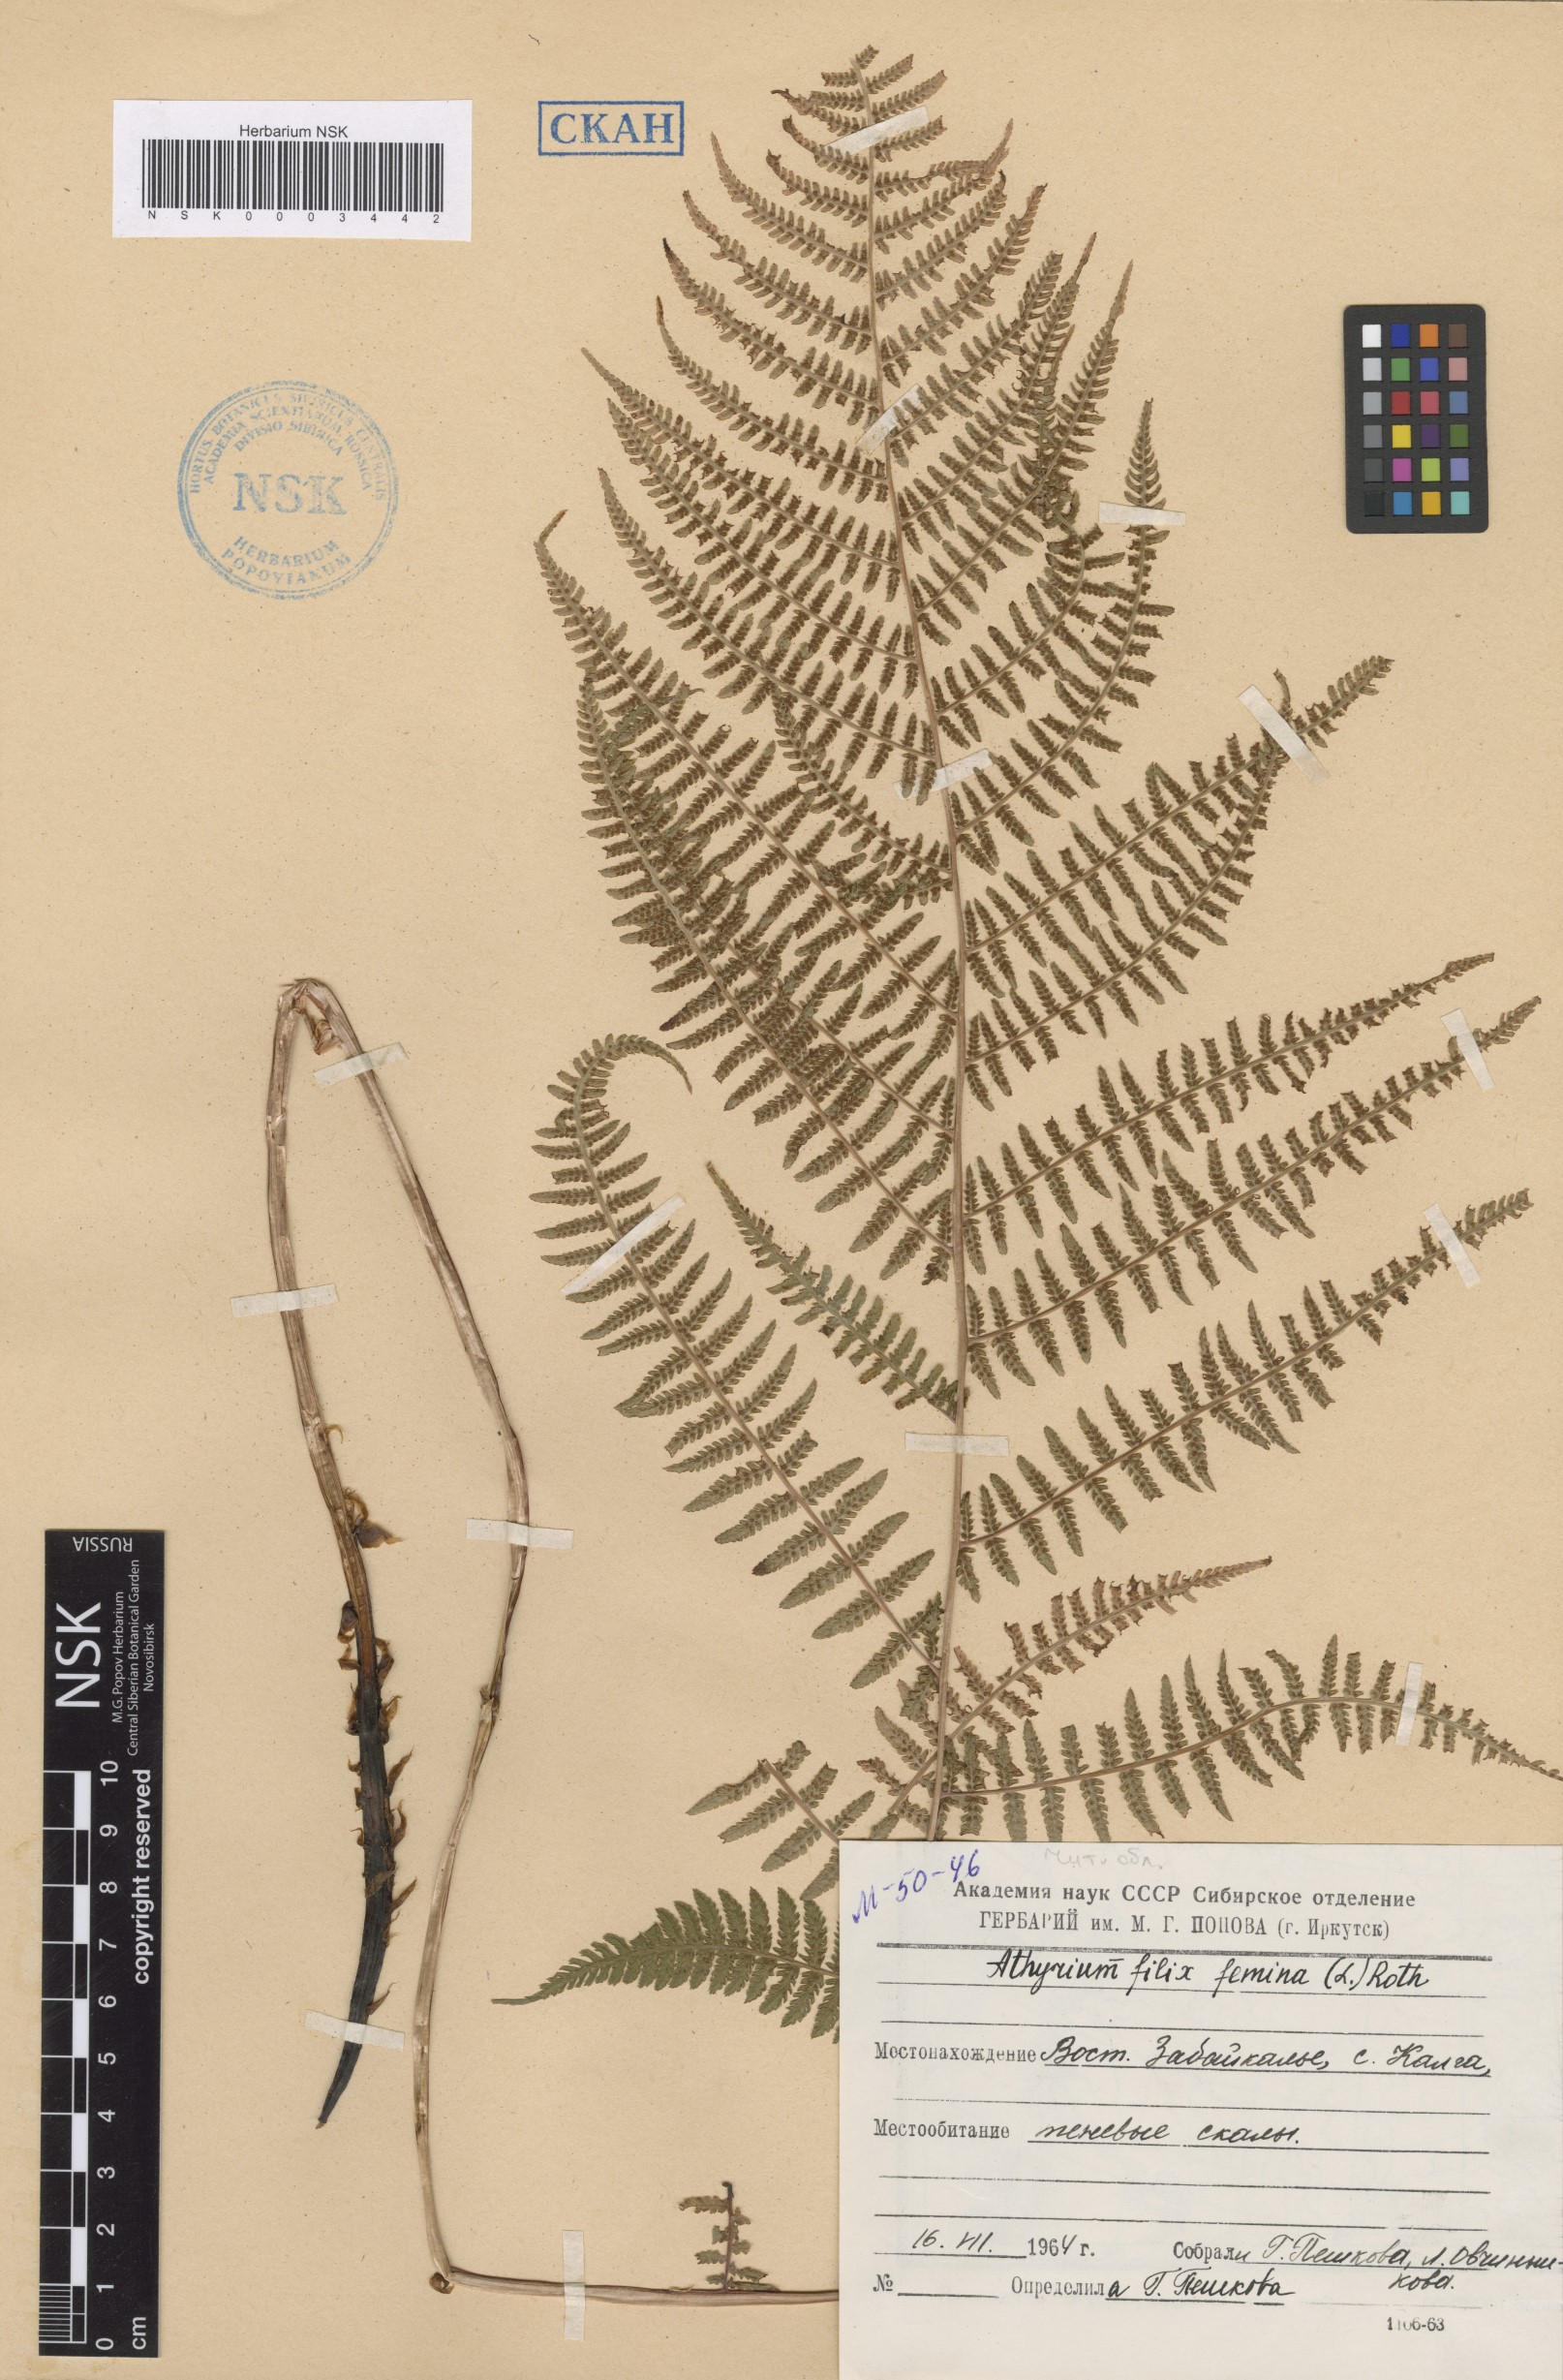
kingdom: Plantae
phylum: Tracheophyta
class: Polypodiopsida
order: Polypodiales
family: Athyriaceae
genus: Athyrium
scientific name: Athyrium filix-femina
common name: Lady fern
